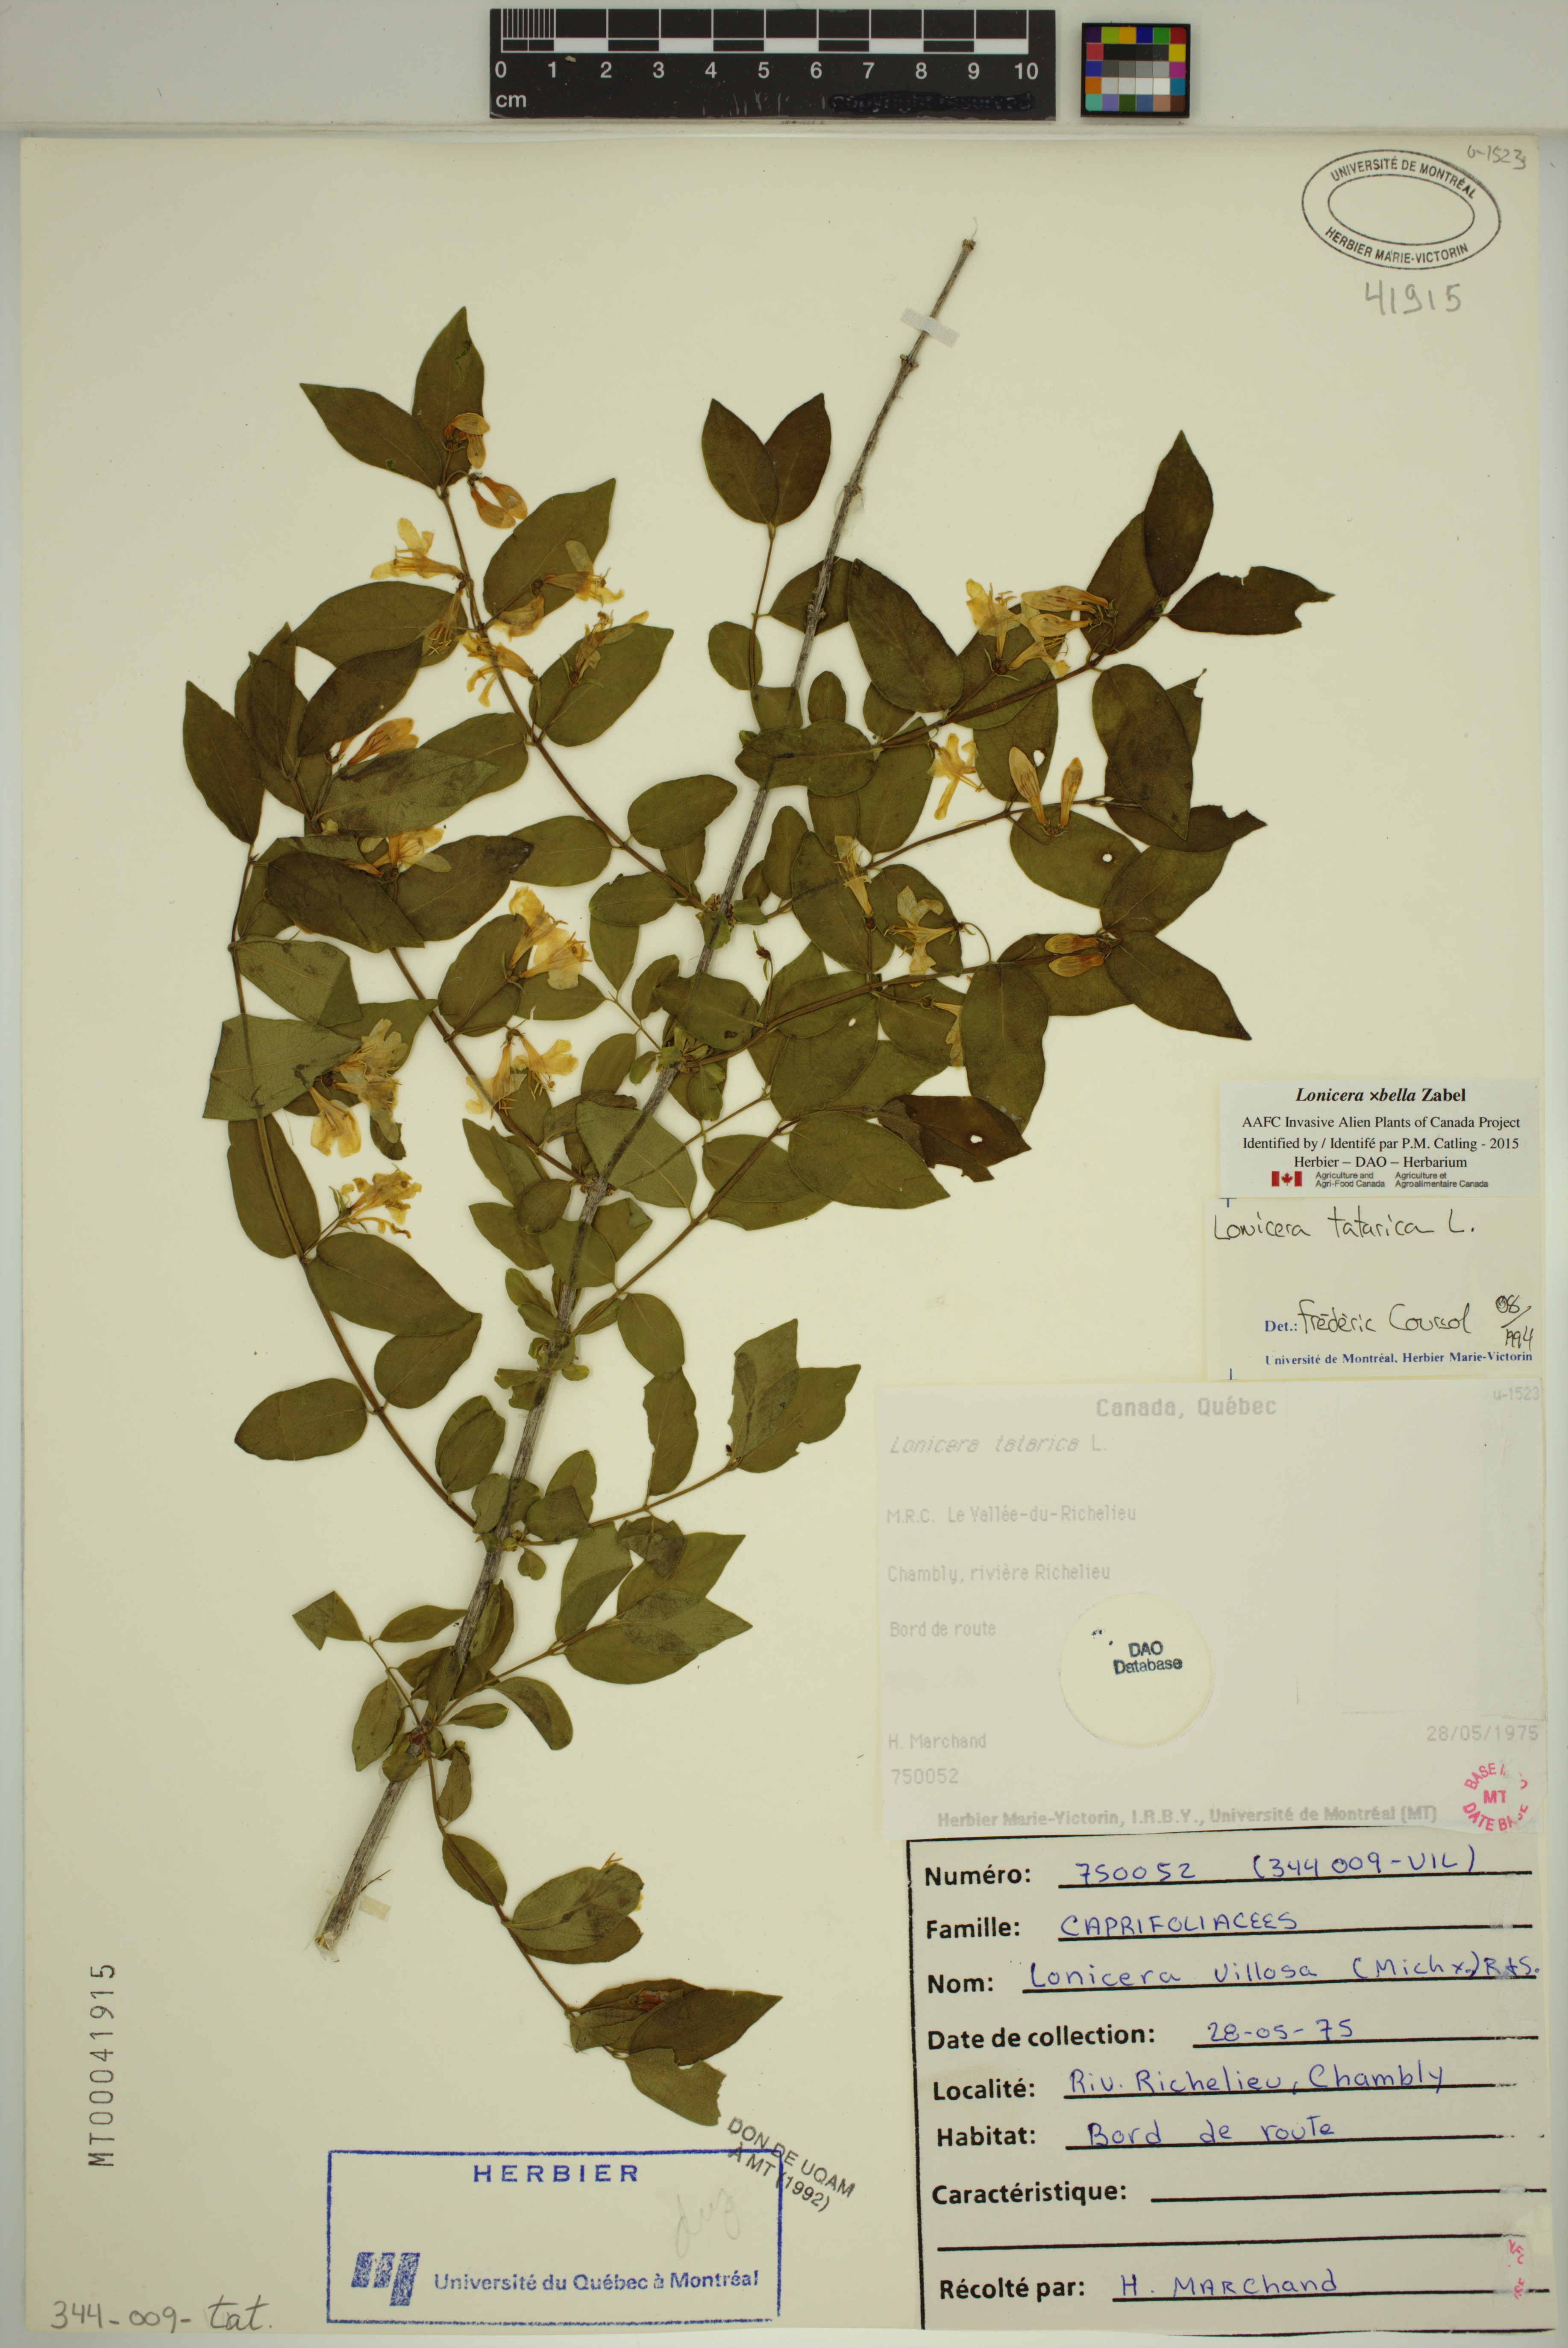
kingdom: Plantae
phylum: Tracheophyta
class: Magnoliopsida
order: Dipsacales
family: Caprifoliaceae
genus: Lonicera
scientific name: Lonicera bella
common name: Bell's honeysuckle
